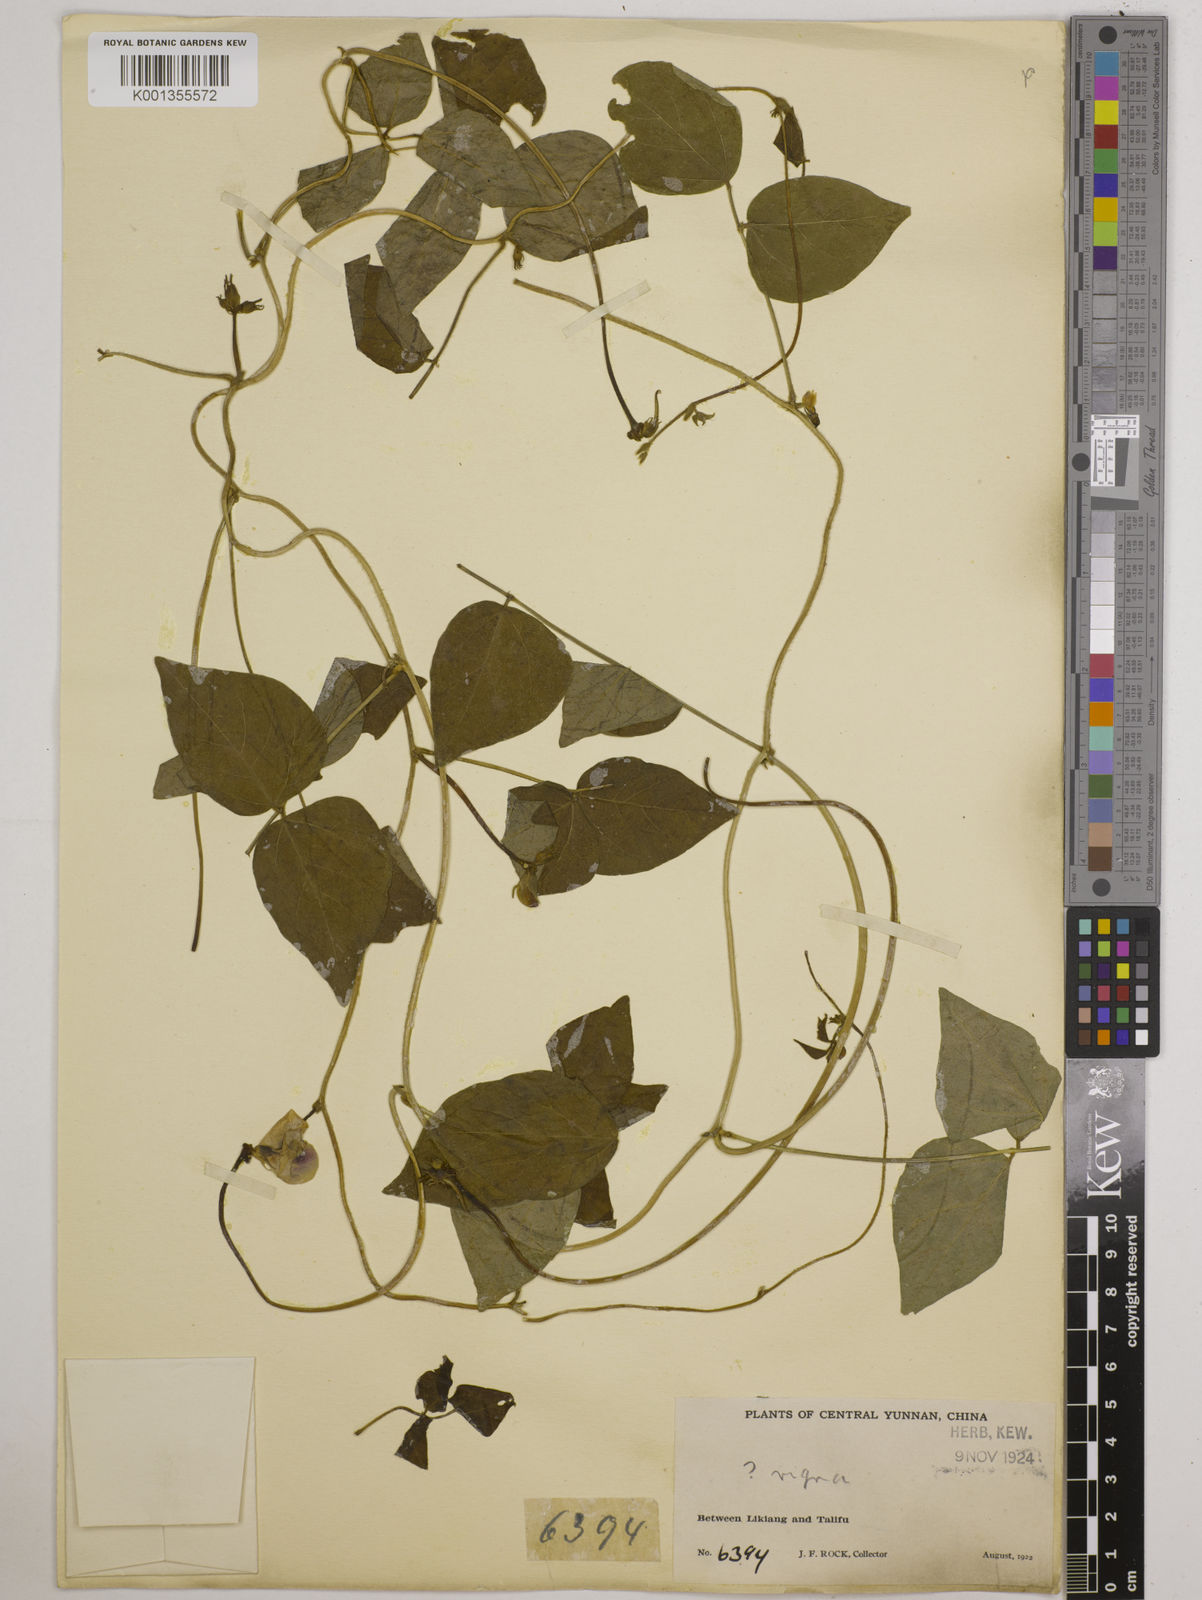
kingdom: Plantae
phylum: Tracheophyta
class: Magnoliopsida
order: Fabales
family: Fabaceae
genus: Vigna
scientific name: Vigna vexillata
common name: Zombi pea
